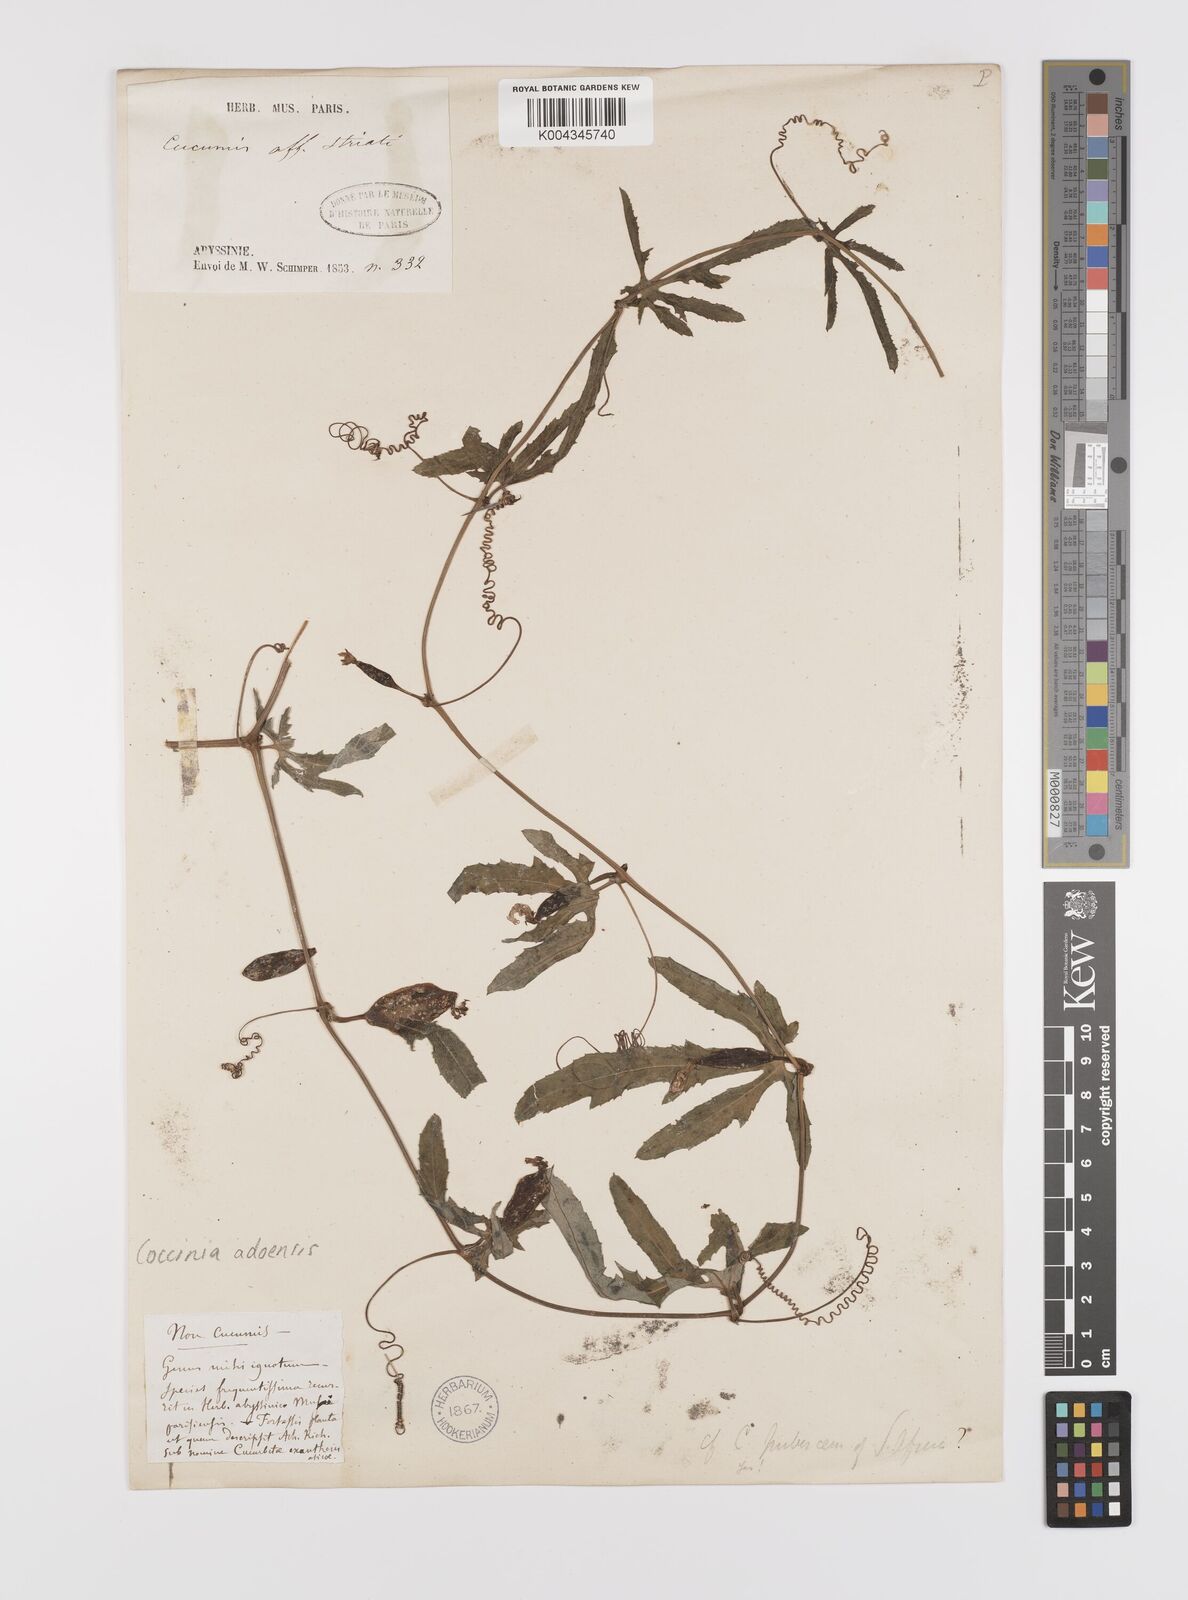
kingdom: Plantae
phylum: Tracheophyta
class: Magnoliopsida
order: Cucurbitales
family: Cucurbitaceae
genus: Coccinia
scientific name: Coccinia adoensis
